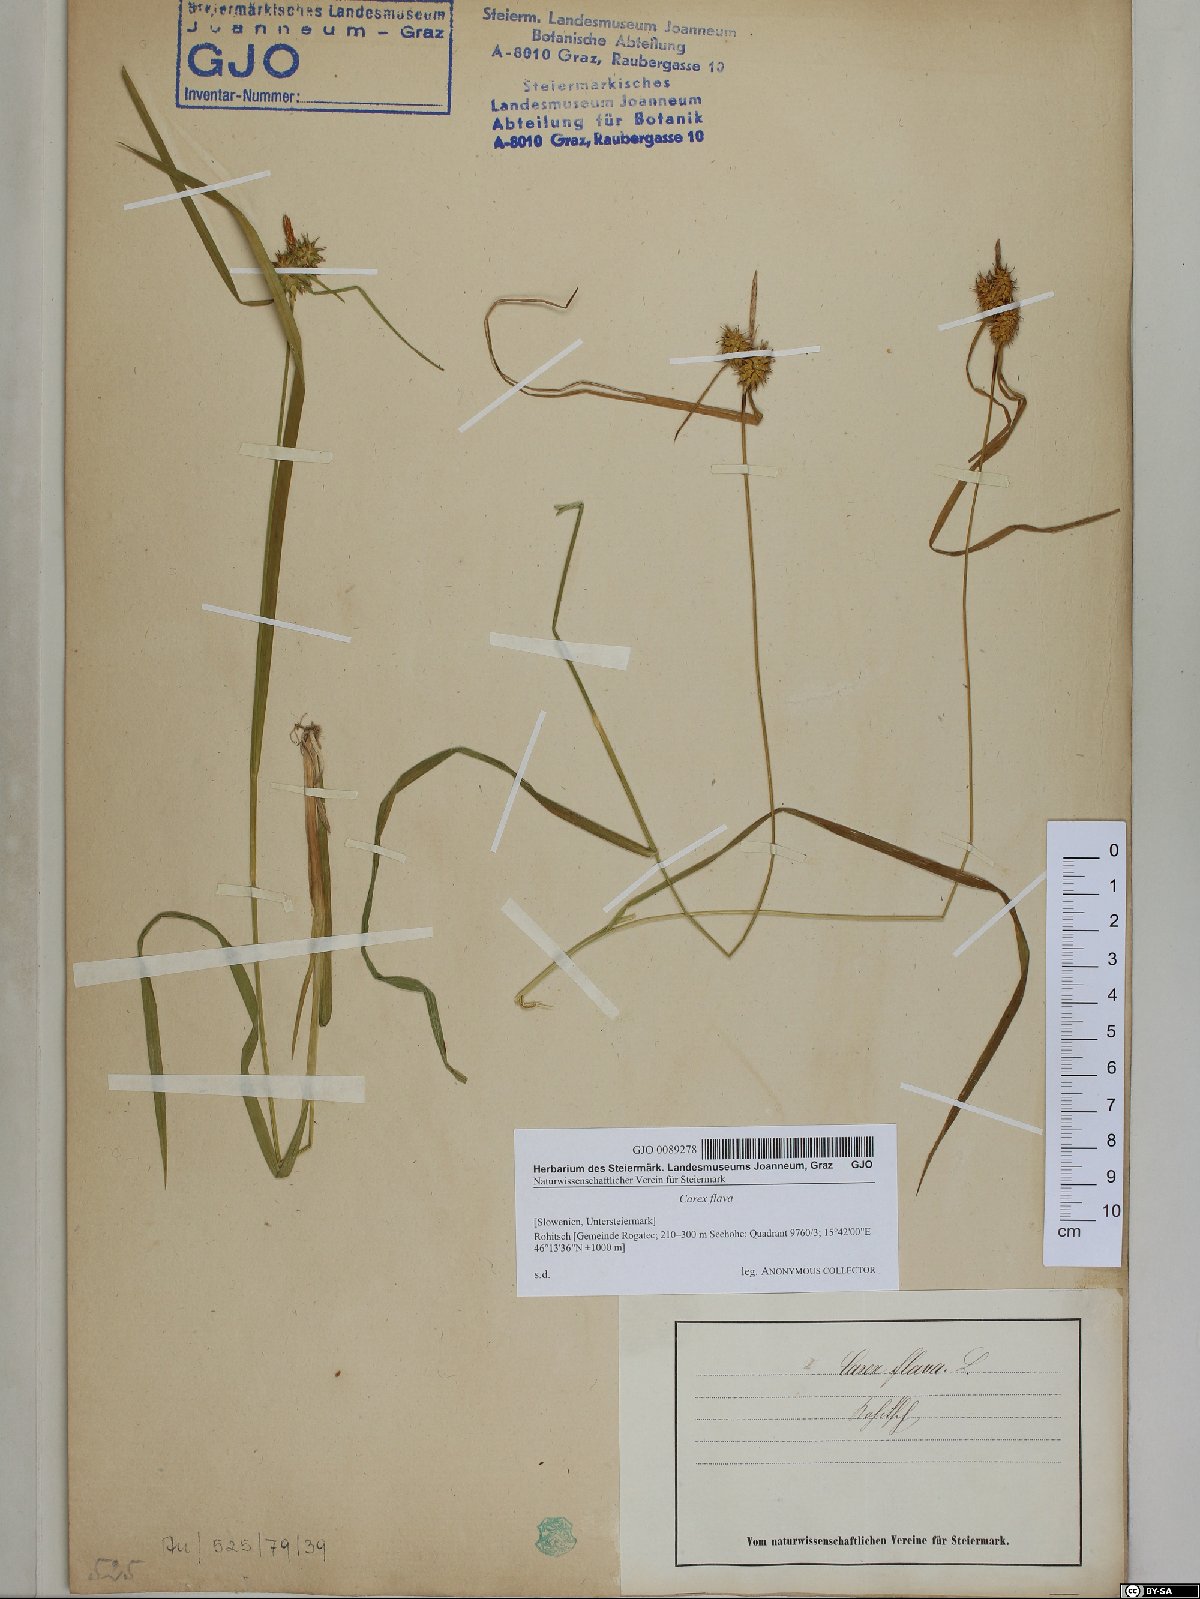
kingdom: Plantae
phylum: Tracheophyta
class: Liliopsida
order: Poales
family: Cyperaceae
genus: Carex
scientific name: Carex flava
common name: Large yellow-sedge
